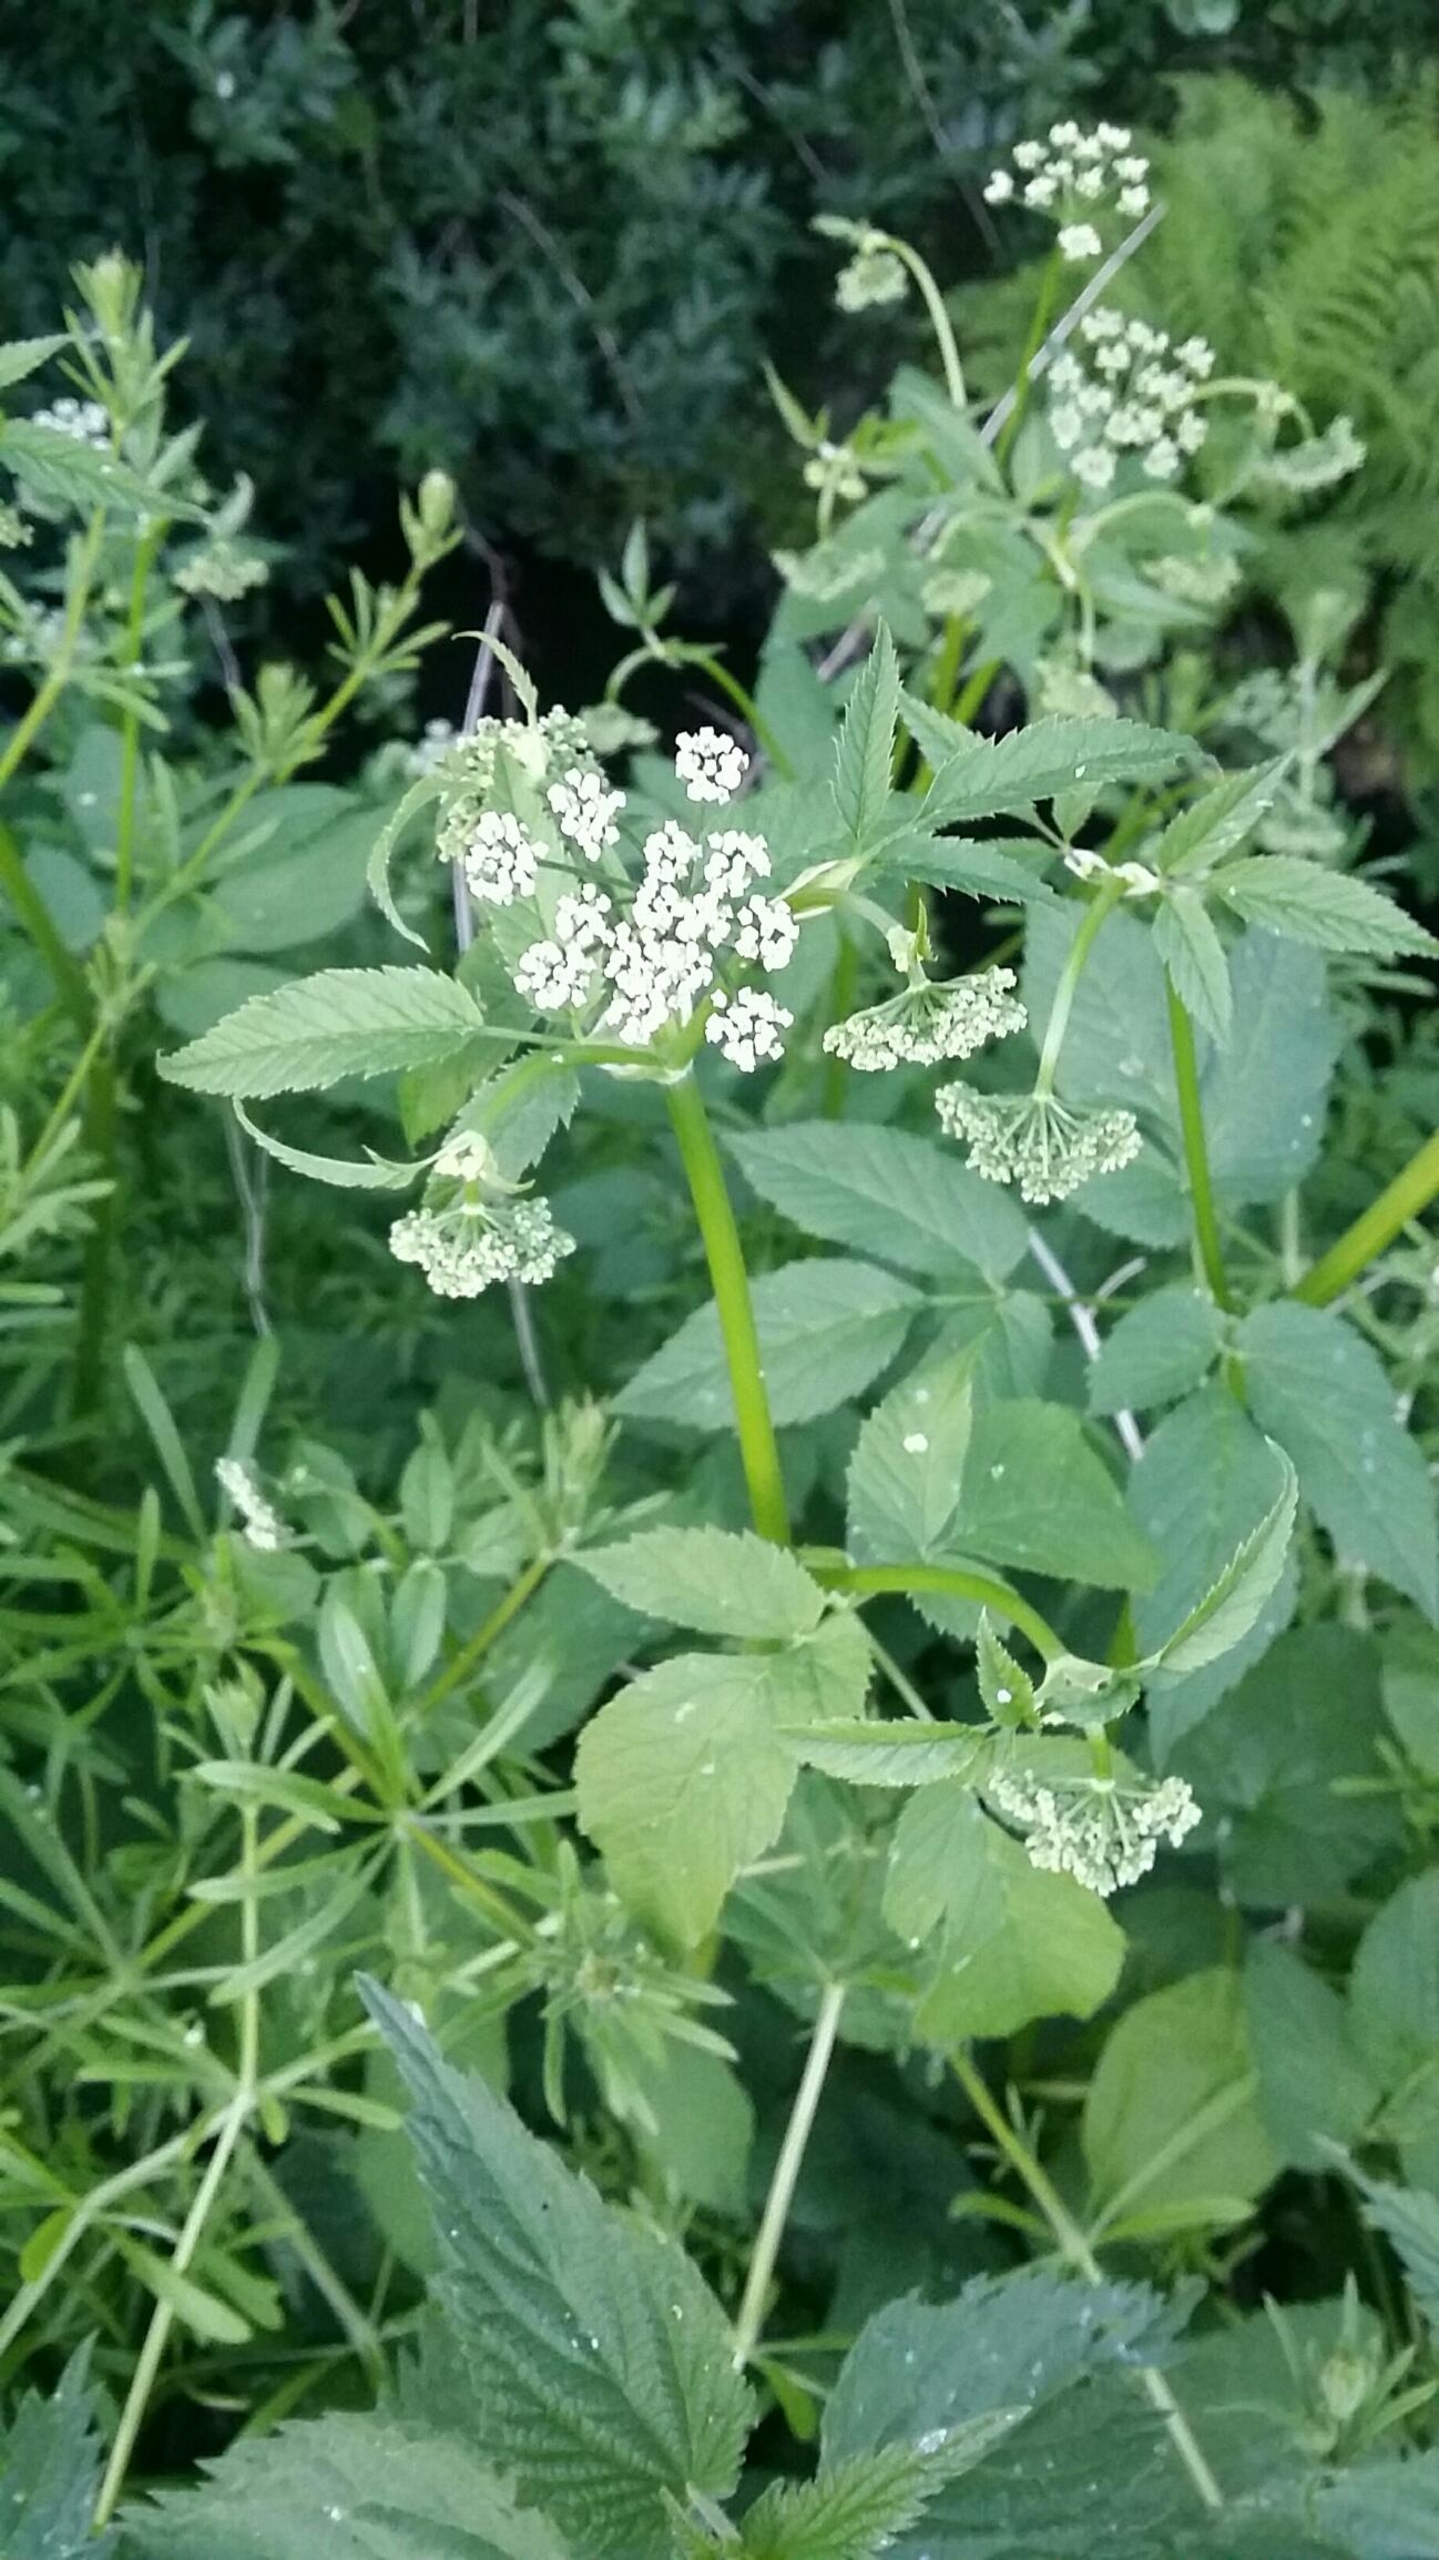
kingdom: Plantae
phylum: Tracheophyta
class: Magnoliopsida
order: Apiales
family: Apiaceae
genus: Aegopodium
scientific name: Aegopodium podagraria
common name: Skvalderkål
